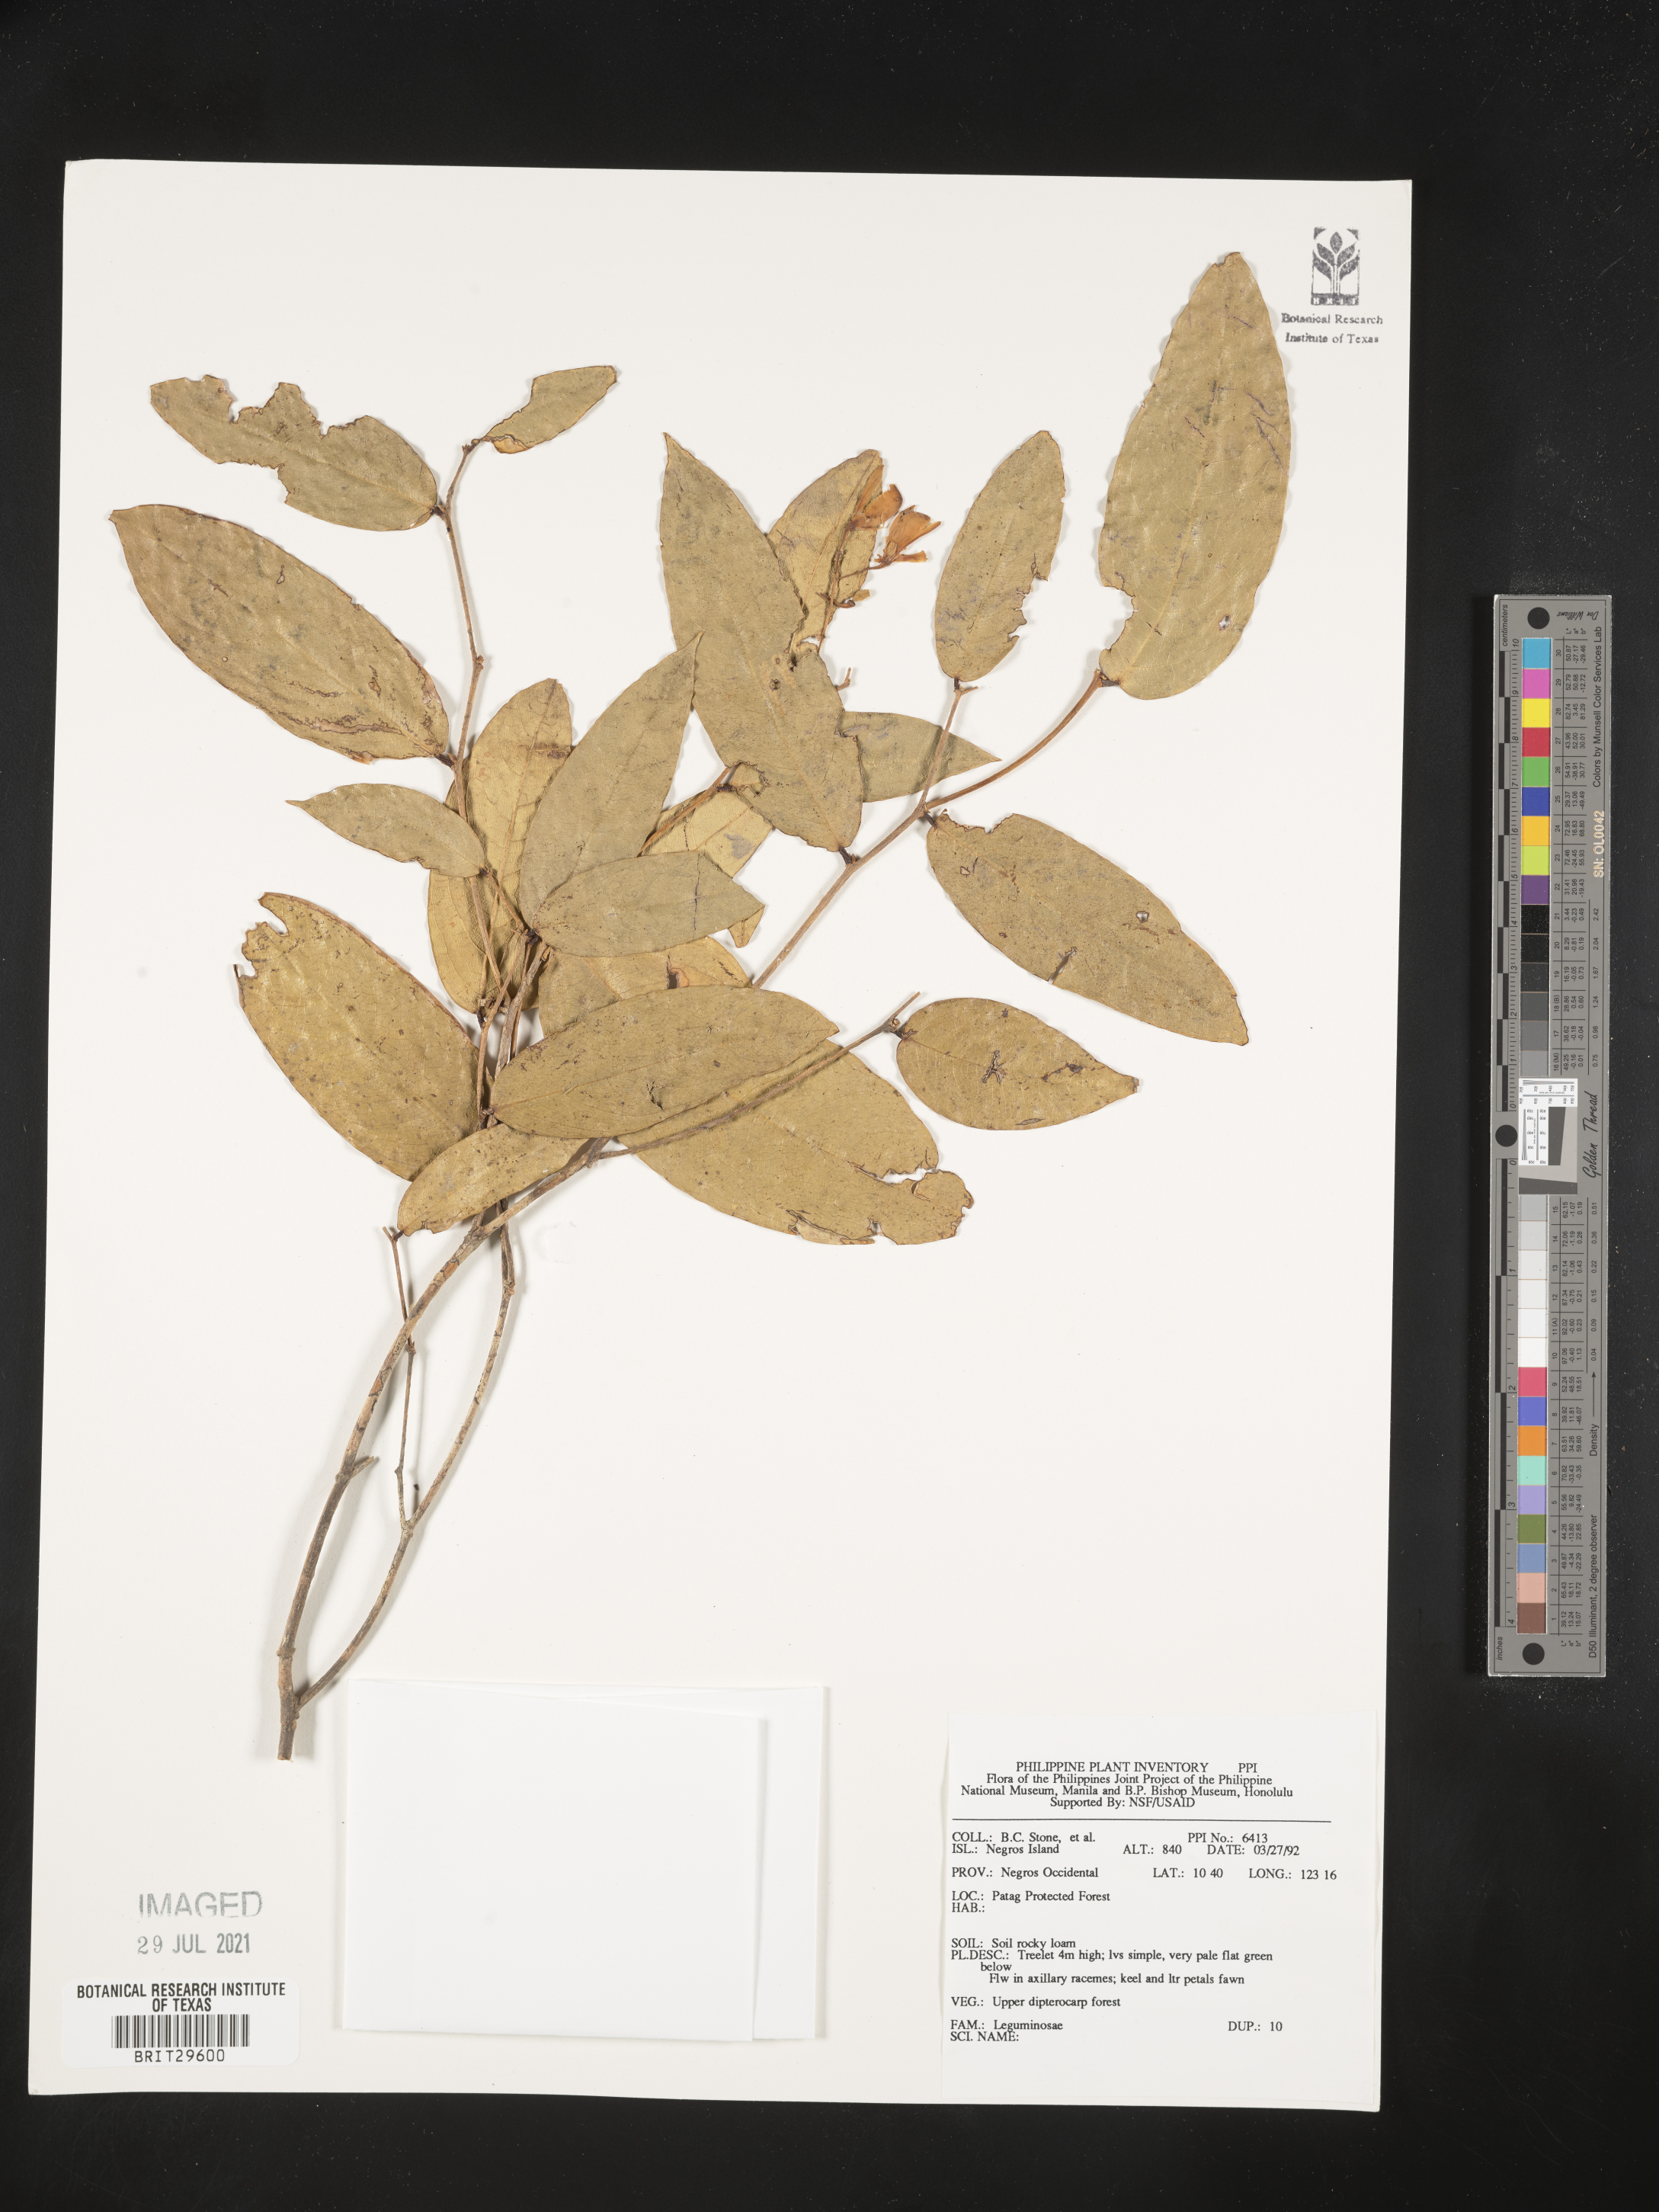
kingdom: Plantae
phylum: Tracheophyta
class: Magnoliopsida
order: Fabales
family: Fabaceae
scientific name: Fabaceae
